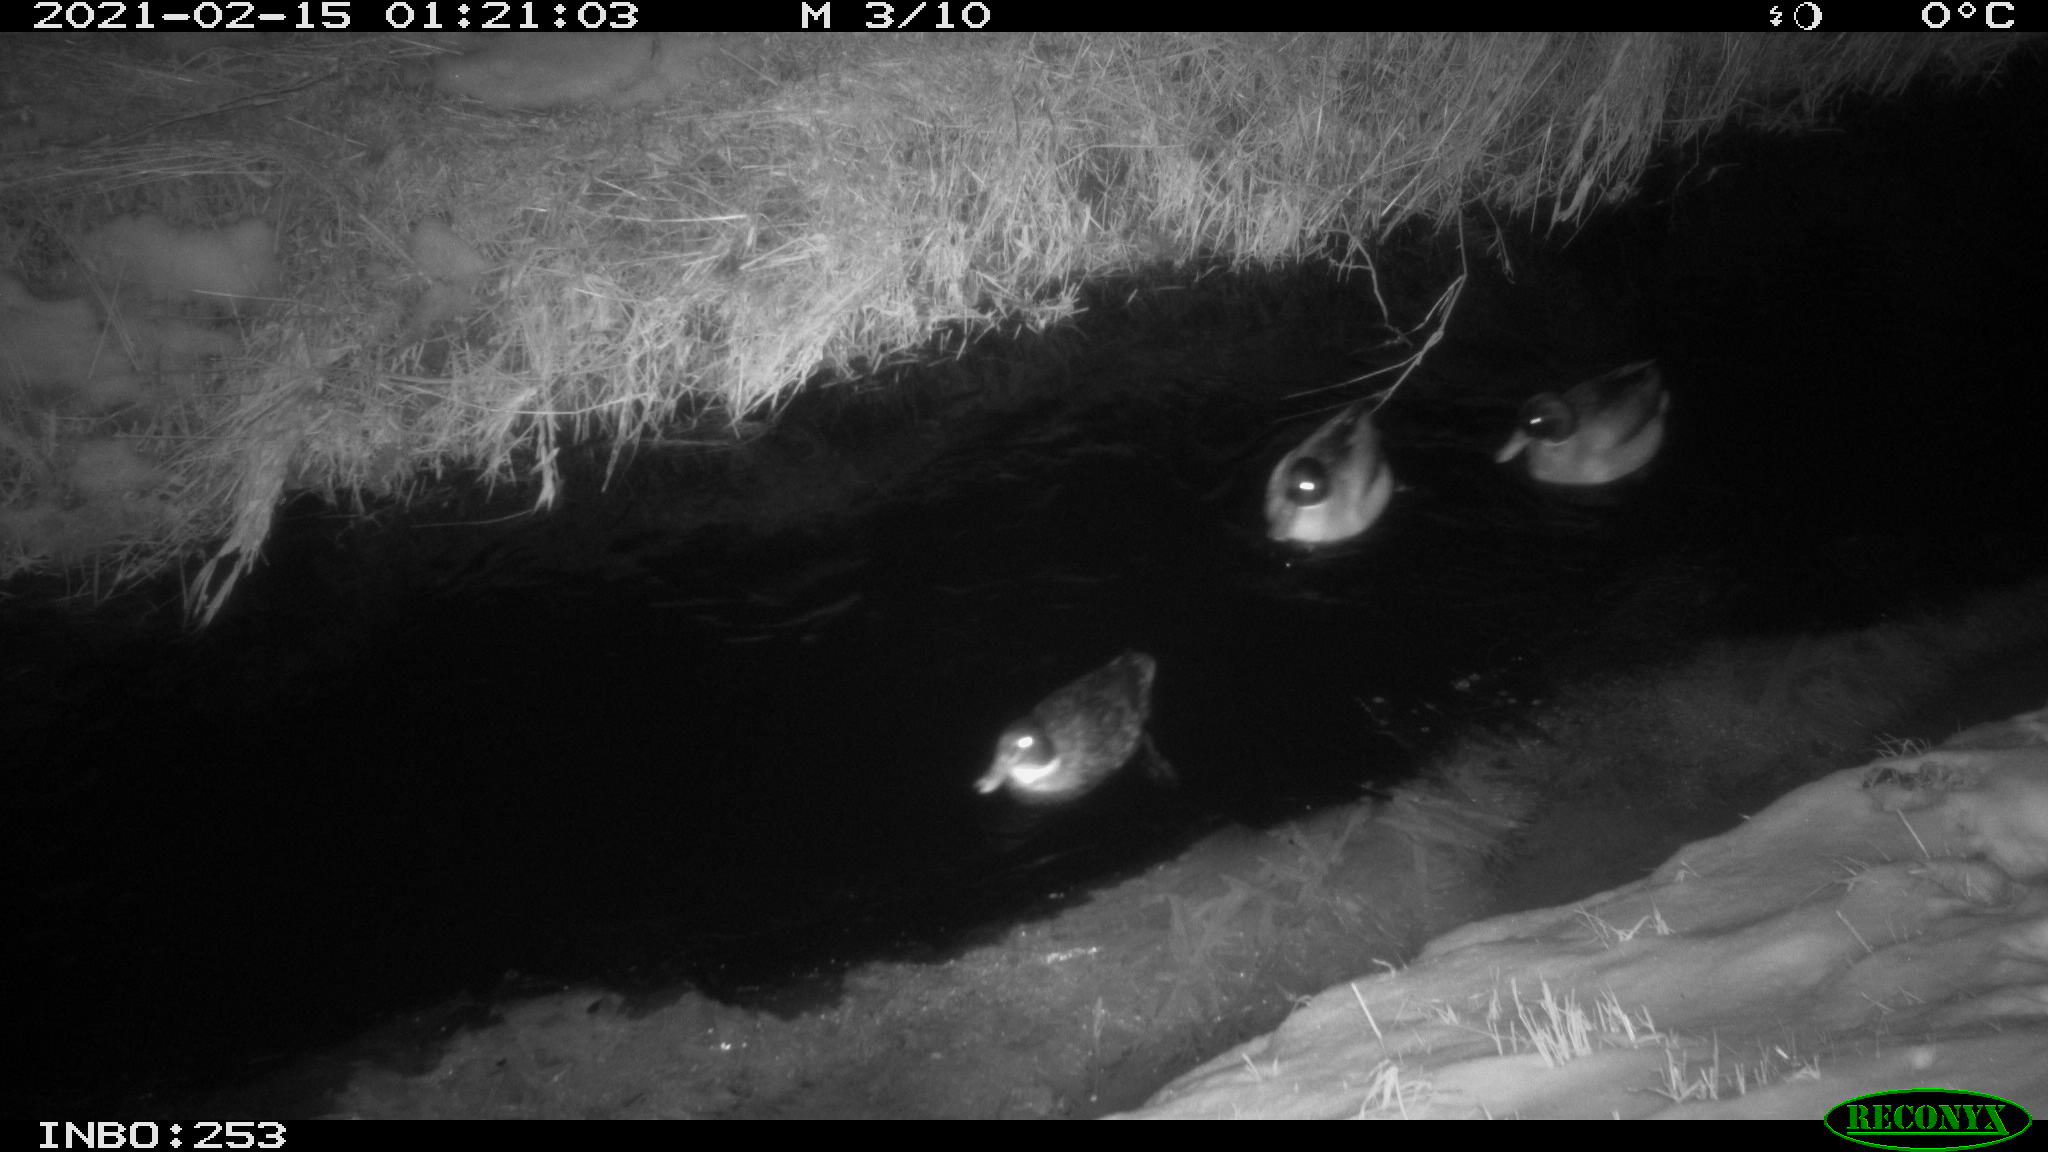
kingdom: Animalia
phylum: Chordata
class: Aves
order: Anseriformes
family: Anatidae
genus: Anas
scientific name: Anas platyrhynchos
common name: Mallard
